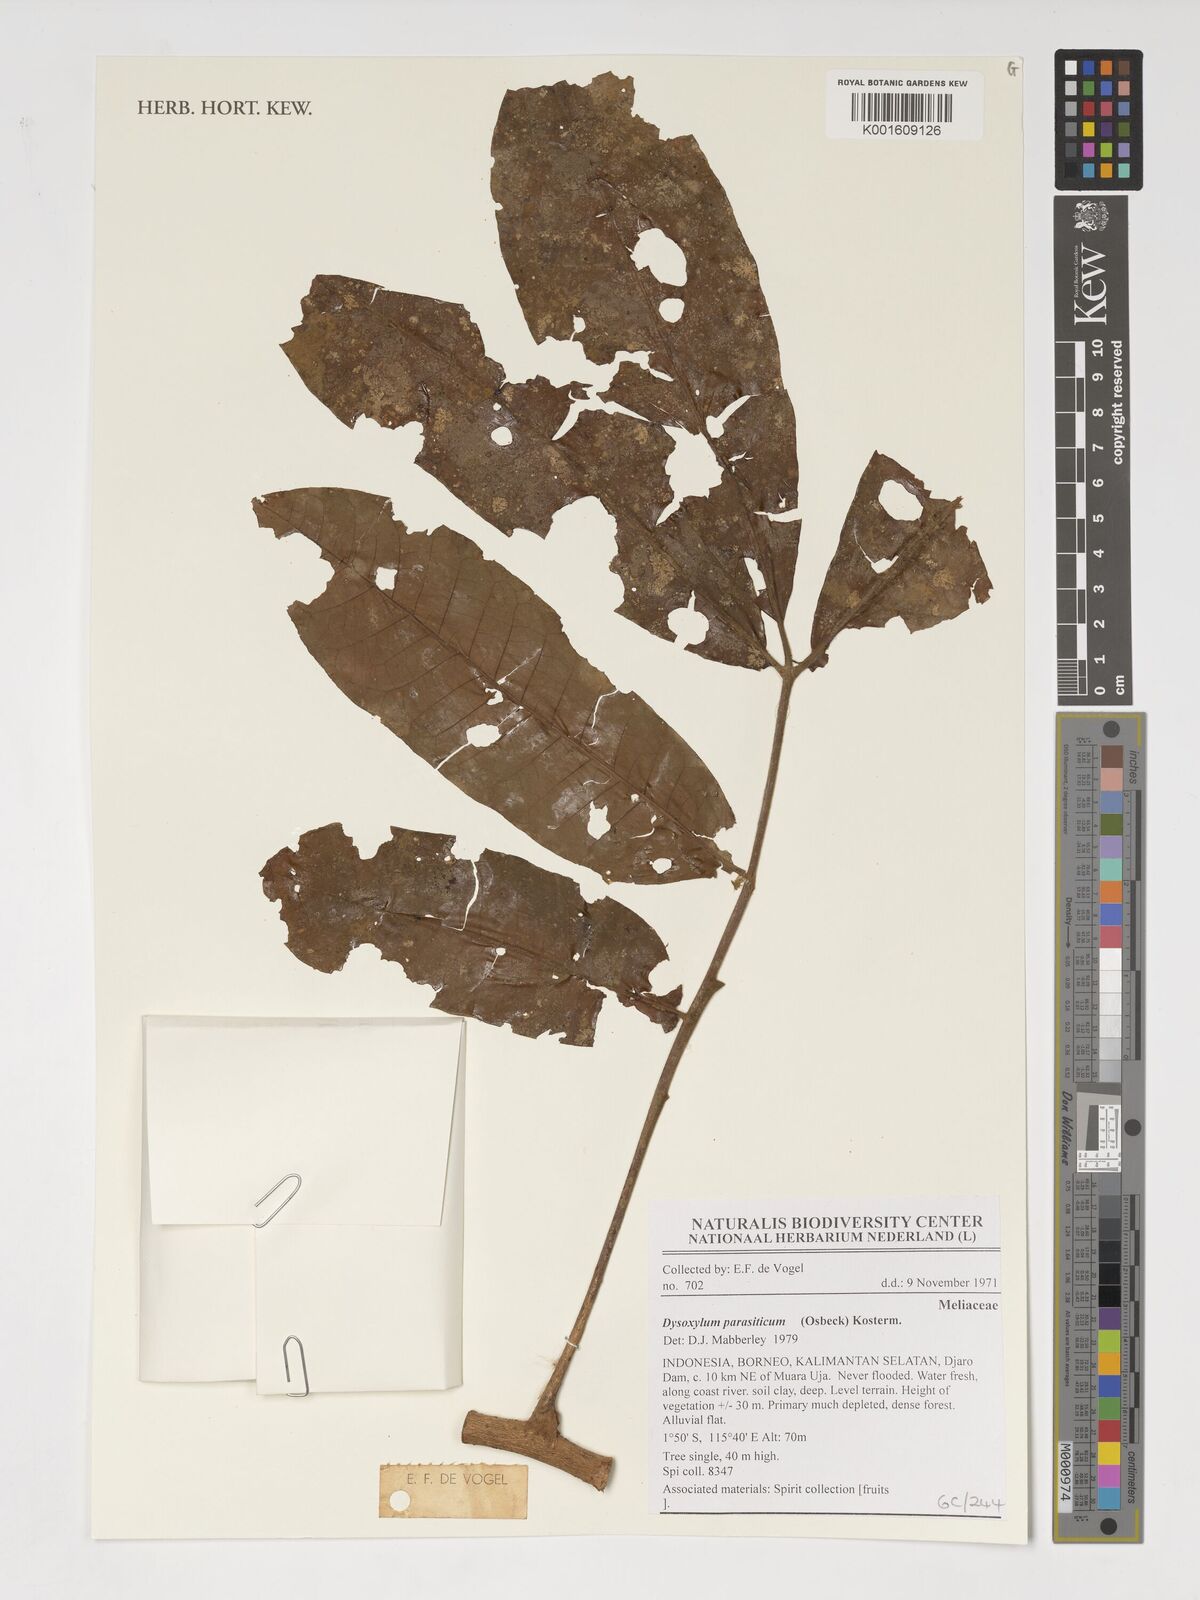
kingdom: Plantae
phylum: Tracheophyta
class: Magnoliopsida
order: Sapindales
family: Meliaceae
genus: Epicharis
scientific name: Epicharis parasitica
